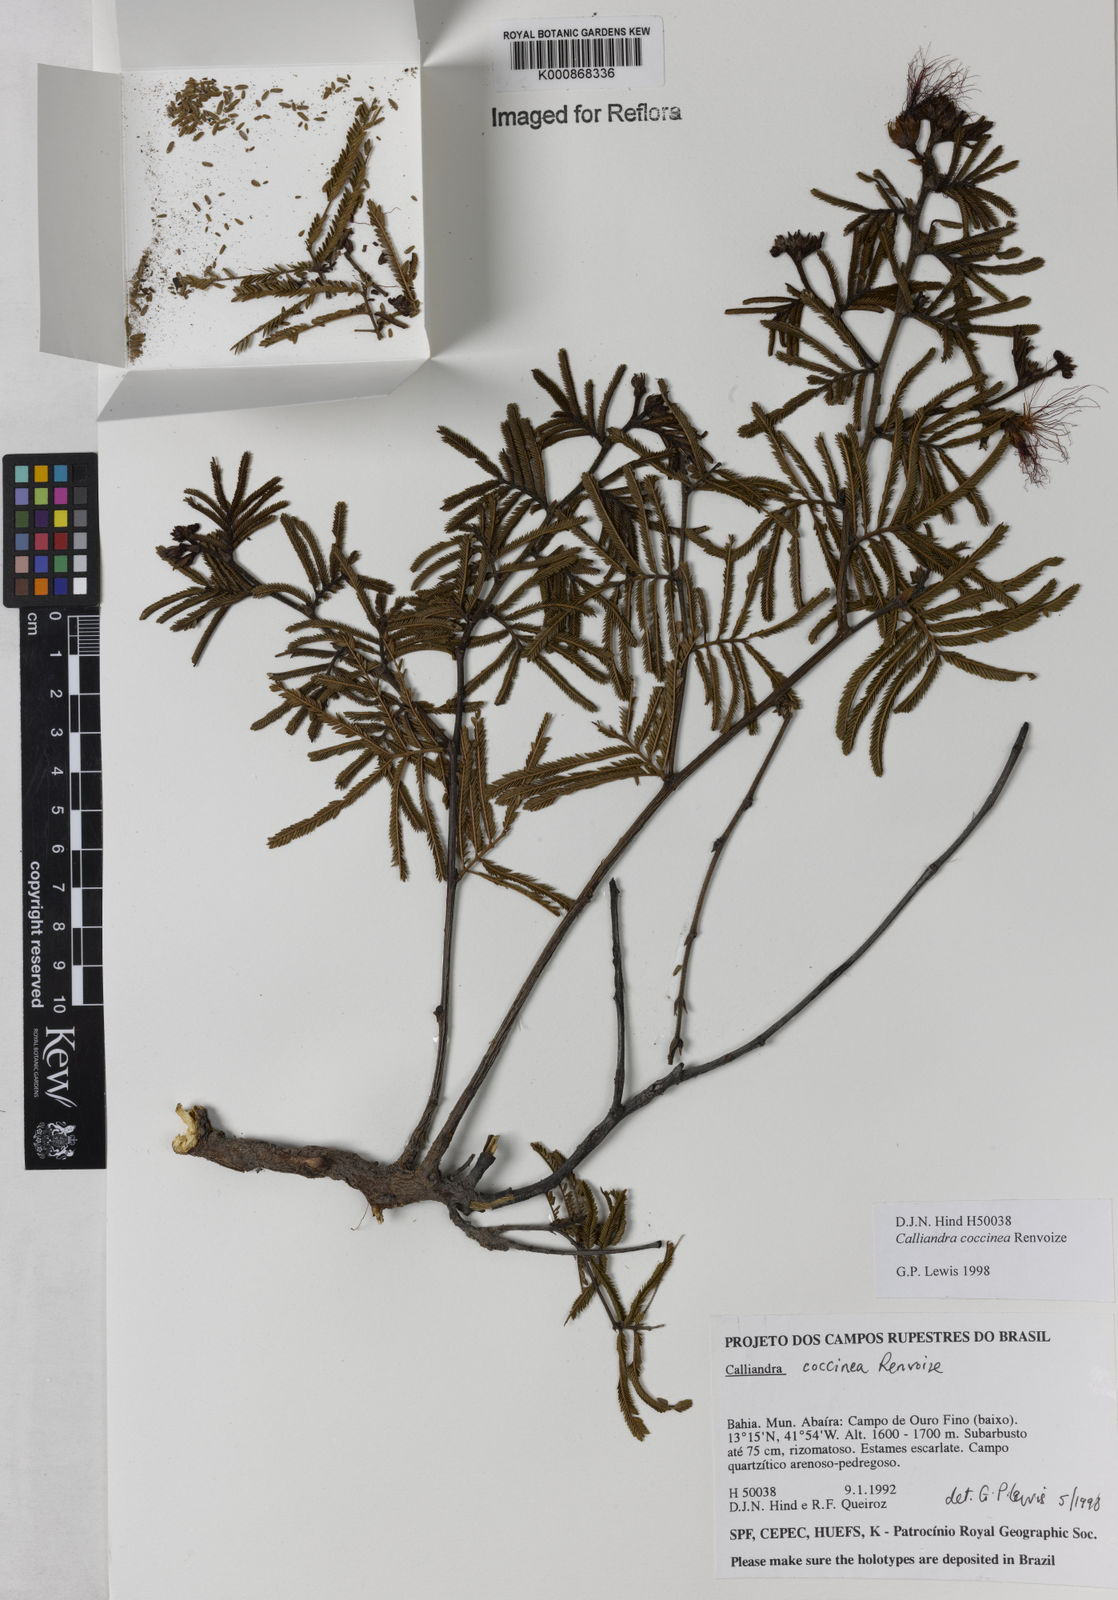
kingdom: Plantae
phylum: Tracheophyta
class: Magnoliopsida
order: Fabales
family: Fabaceae
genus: Calliandra
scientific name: Calliandra coccinea
